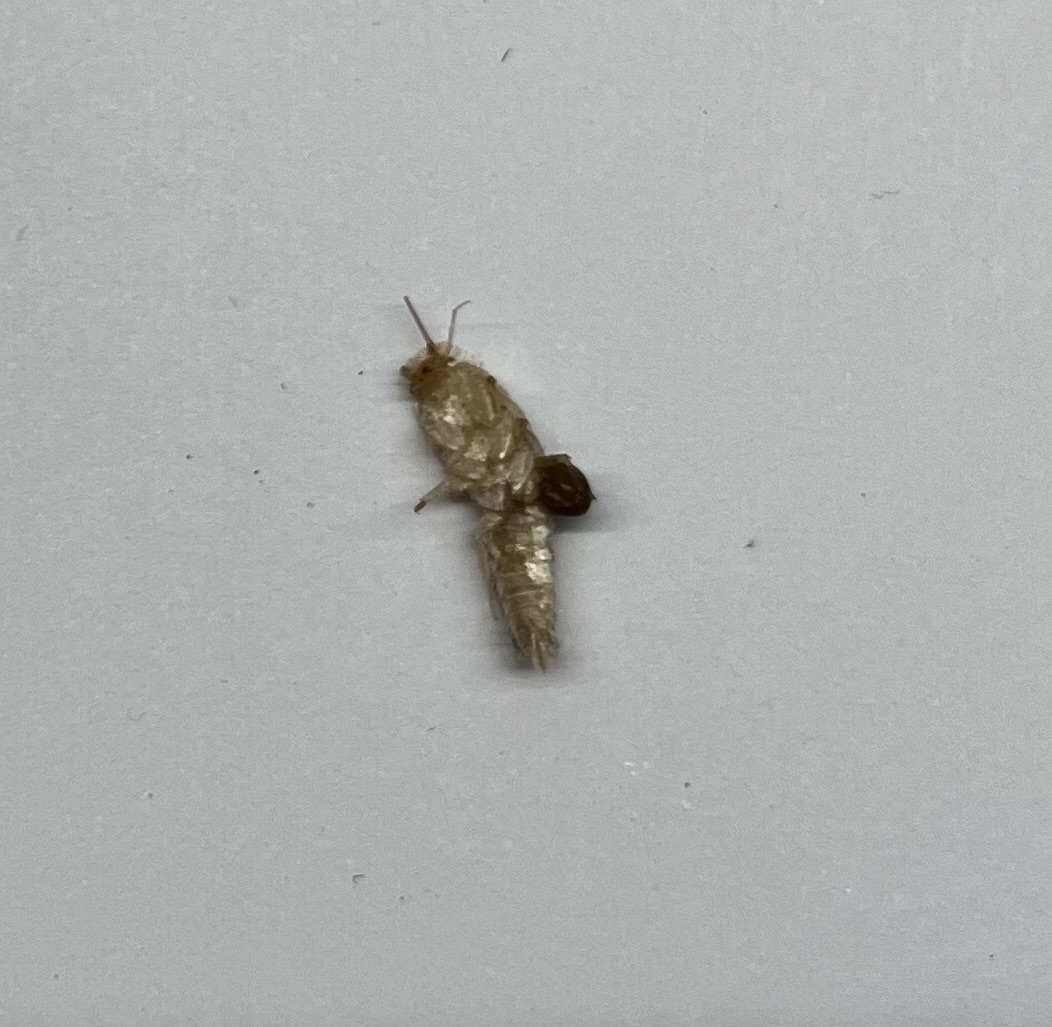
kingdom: Animalia
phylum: Arthropoda
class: Insecta
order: Zygentoma
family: Lepismatidae
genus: Ctenolepisma
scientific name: Ctenolepisma calvum
